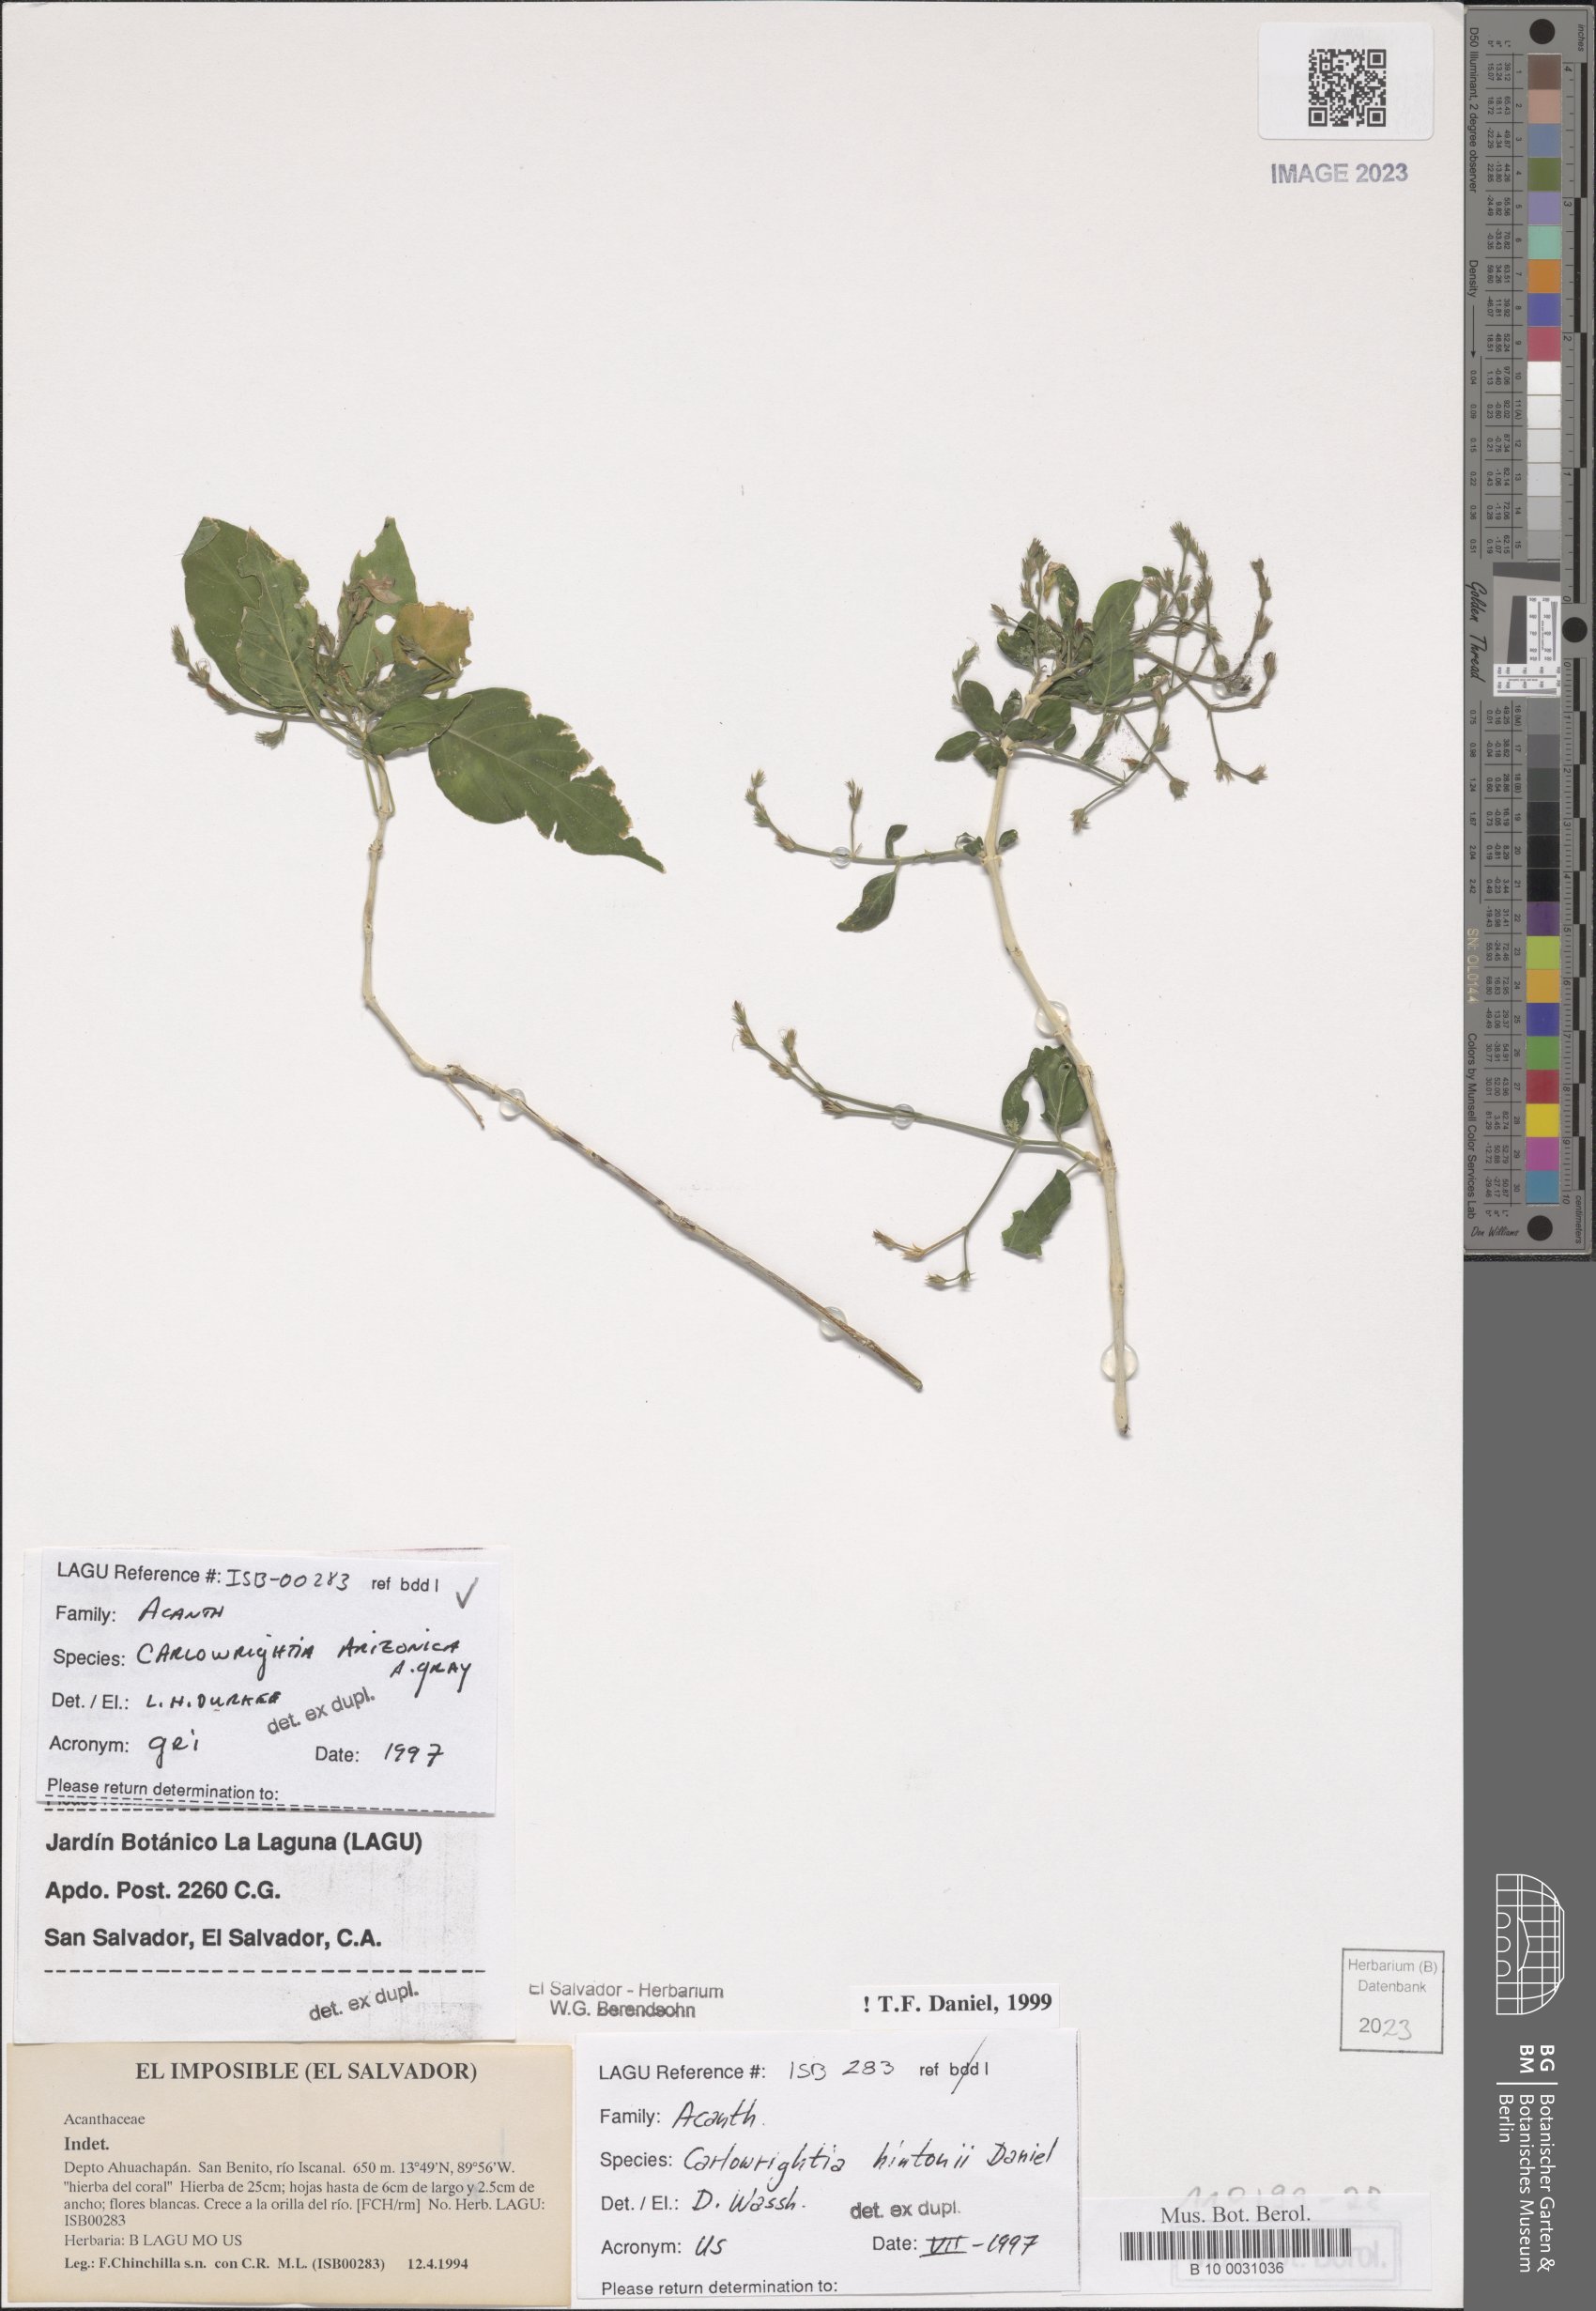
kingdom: Plantae
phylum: Tracheophyta
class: Magnoliopsida
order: Lamiales
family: Acanthaceae
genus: Carlowrightia
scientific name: Carlowrightia arizonica
